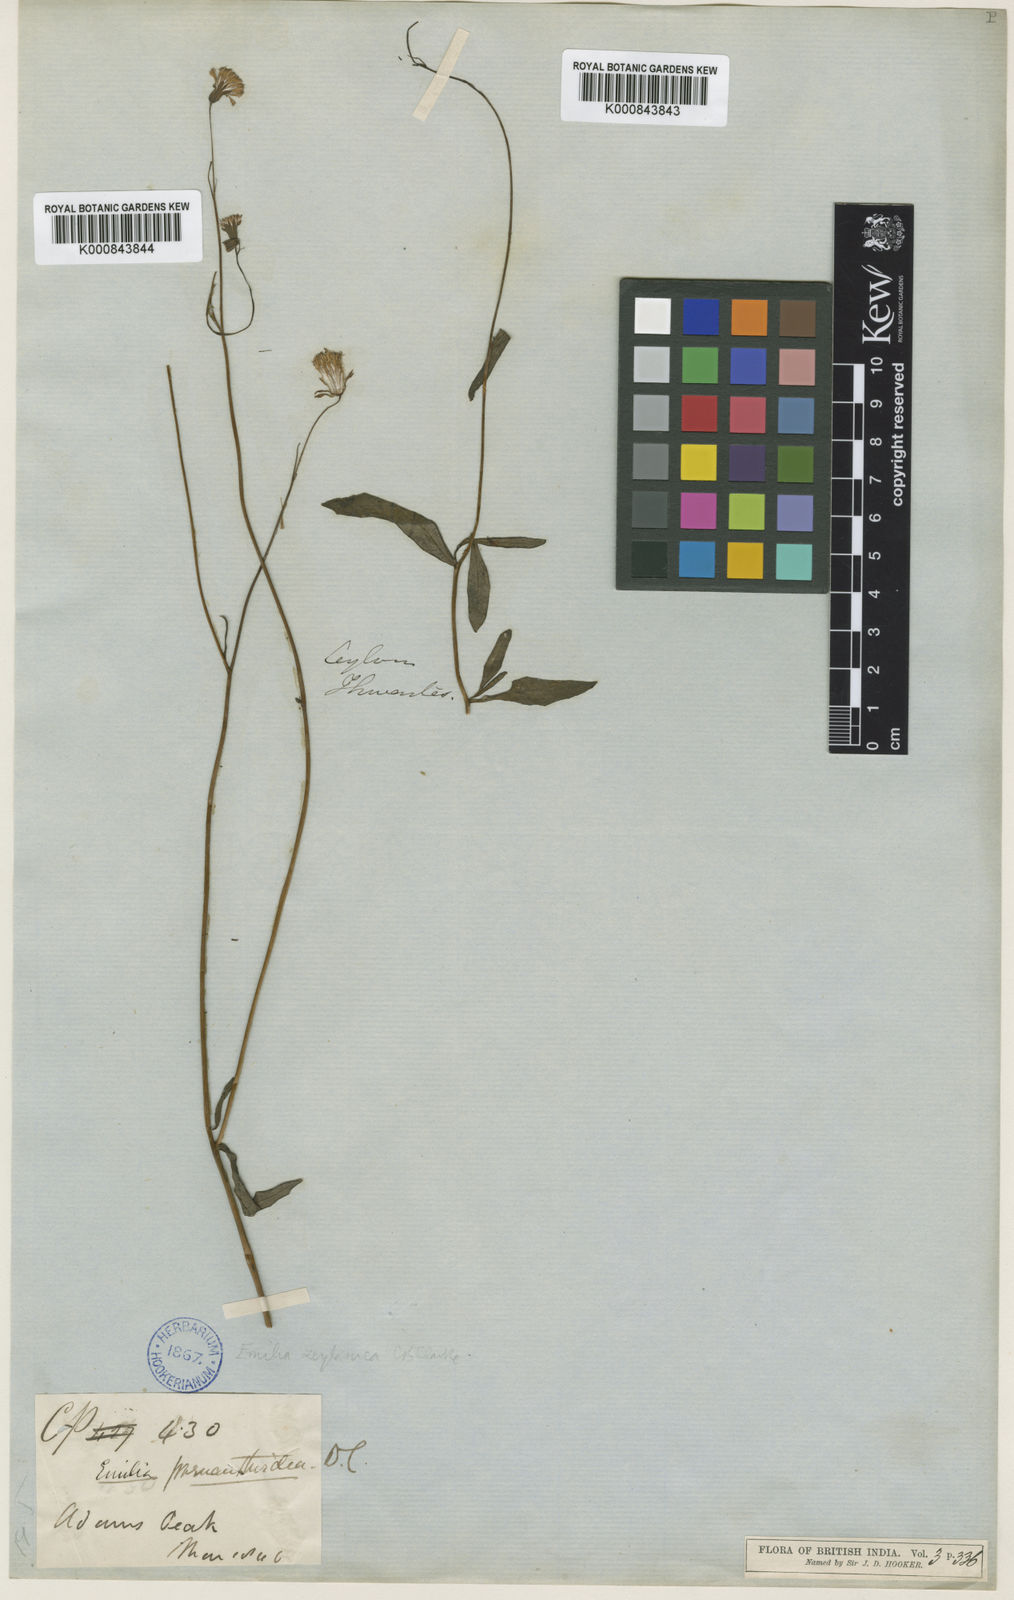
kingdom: Plantae
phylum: Tracheophyta
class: Magnoliopsida
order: Asterales
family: Asteraceae
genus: Emilia
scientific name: Emilia zeylanica
